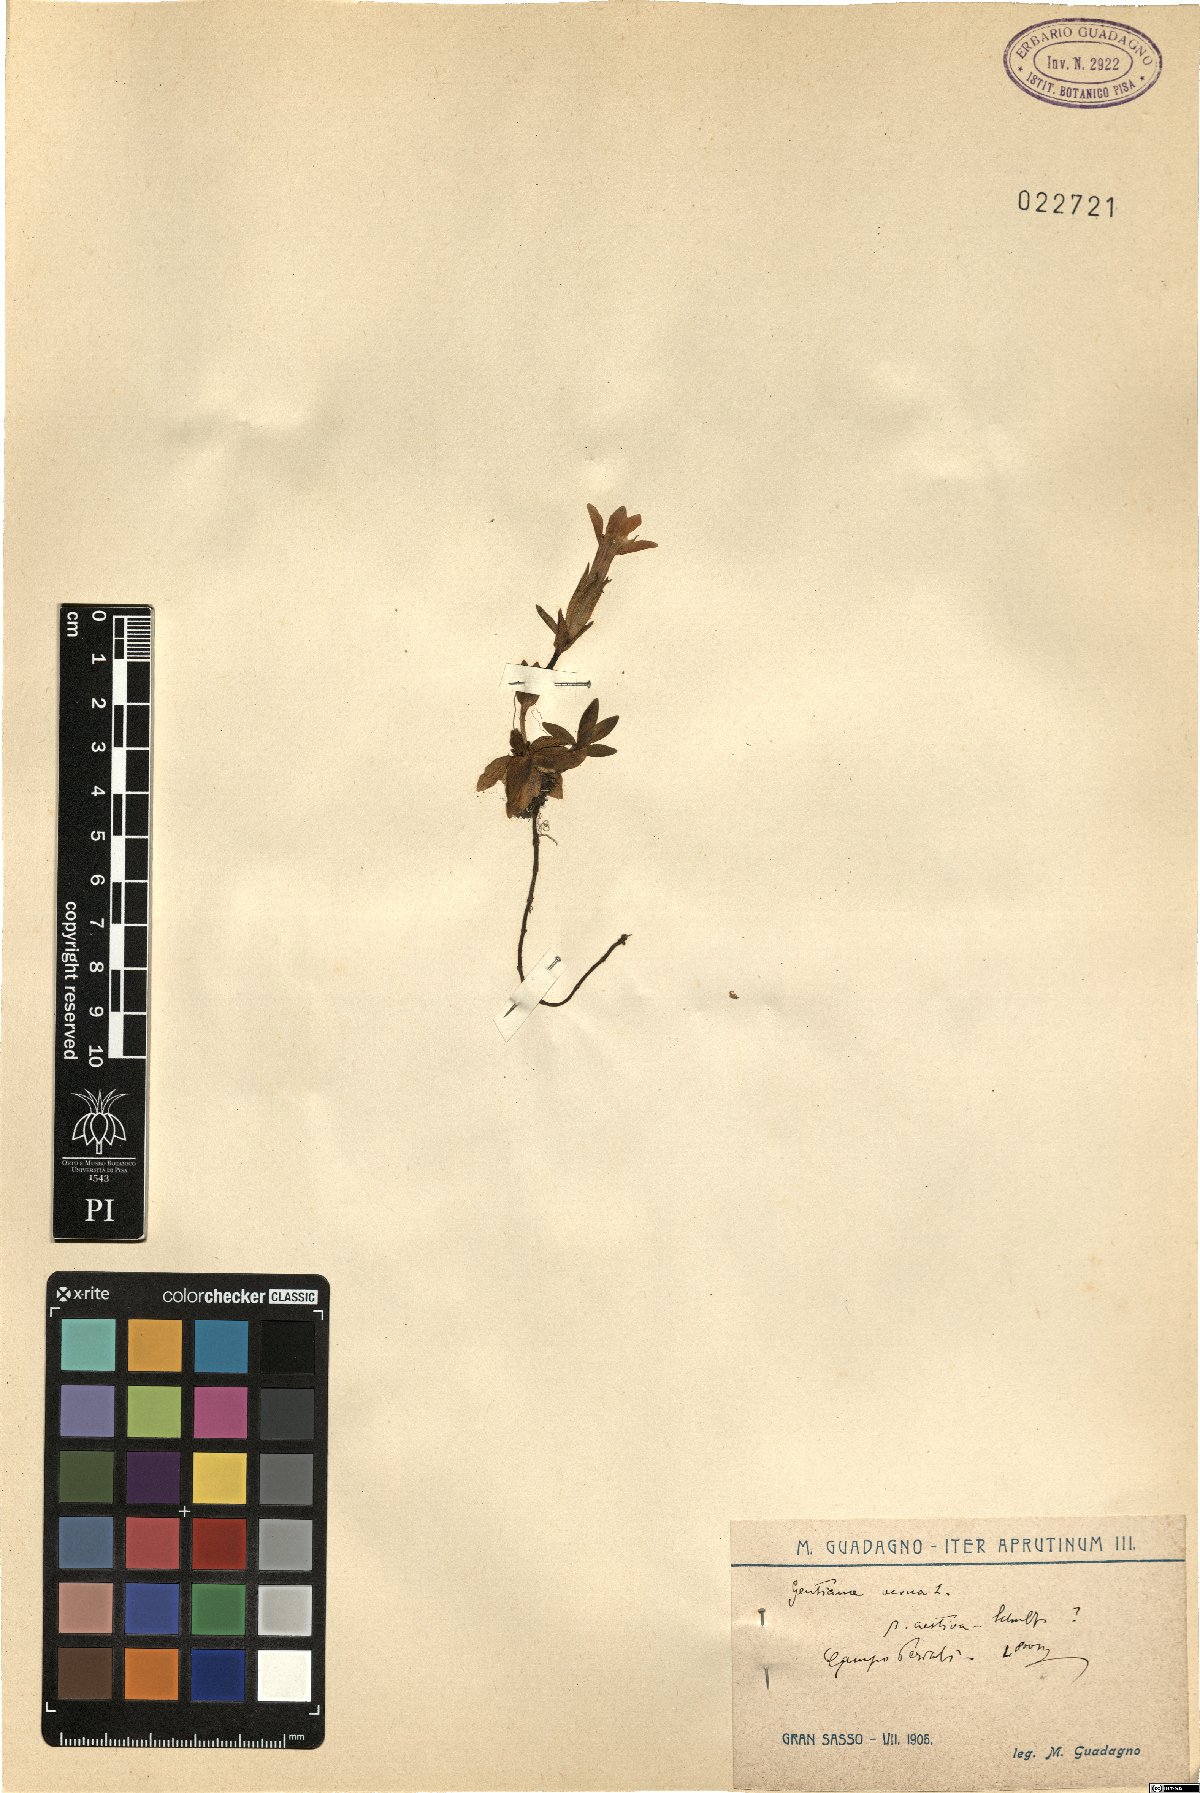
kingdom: Plantae
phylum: Tracheophyta
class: Magnoliopsida
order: Gentianales
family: Gentianaceae
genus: Gentiana
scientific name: Gentiana verna
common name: Spring gentian
